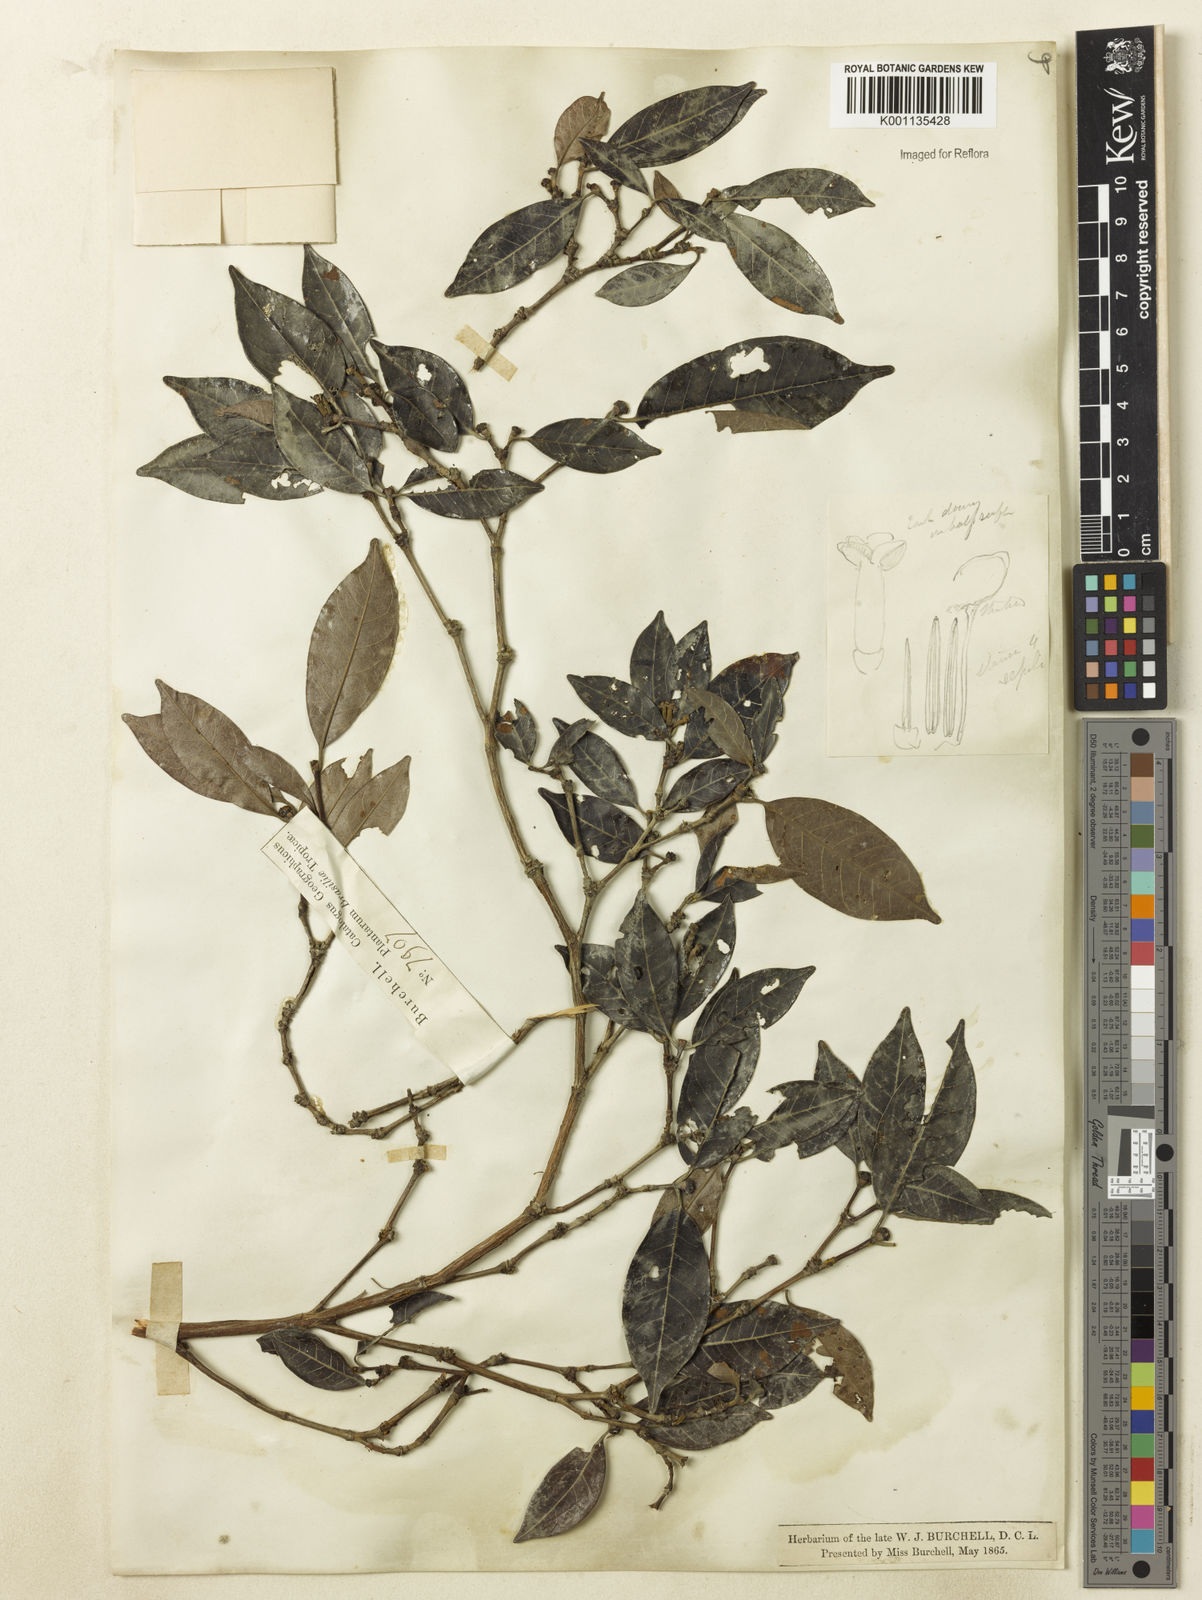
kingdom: Plantae
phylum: Tracheophyta
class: Magnoliopsida
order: Gentianales
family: Rubiaceae
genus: Cordiera
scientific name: Cordiera myrciifolia
